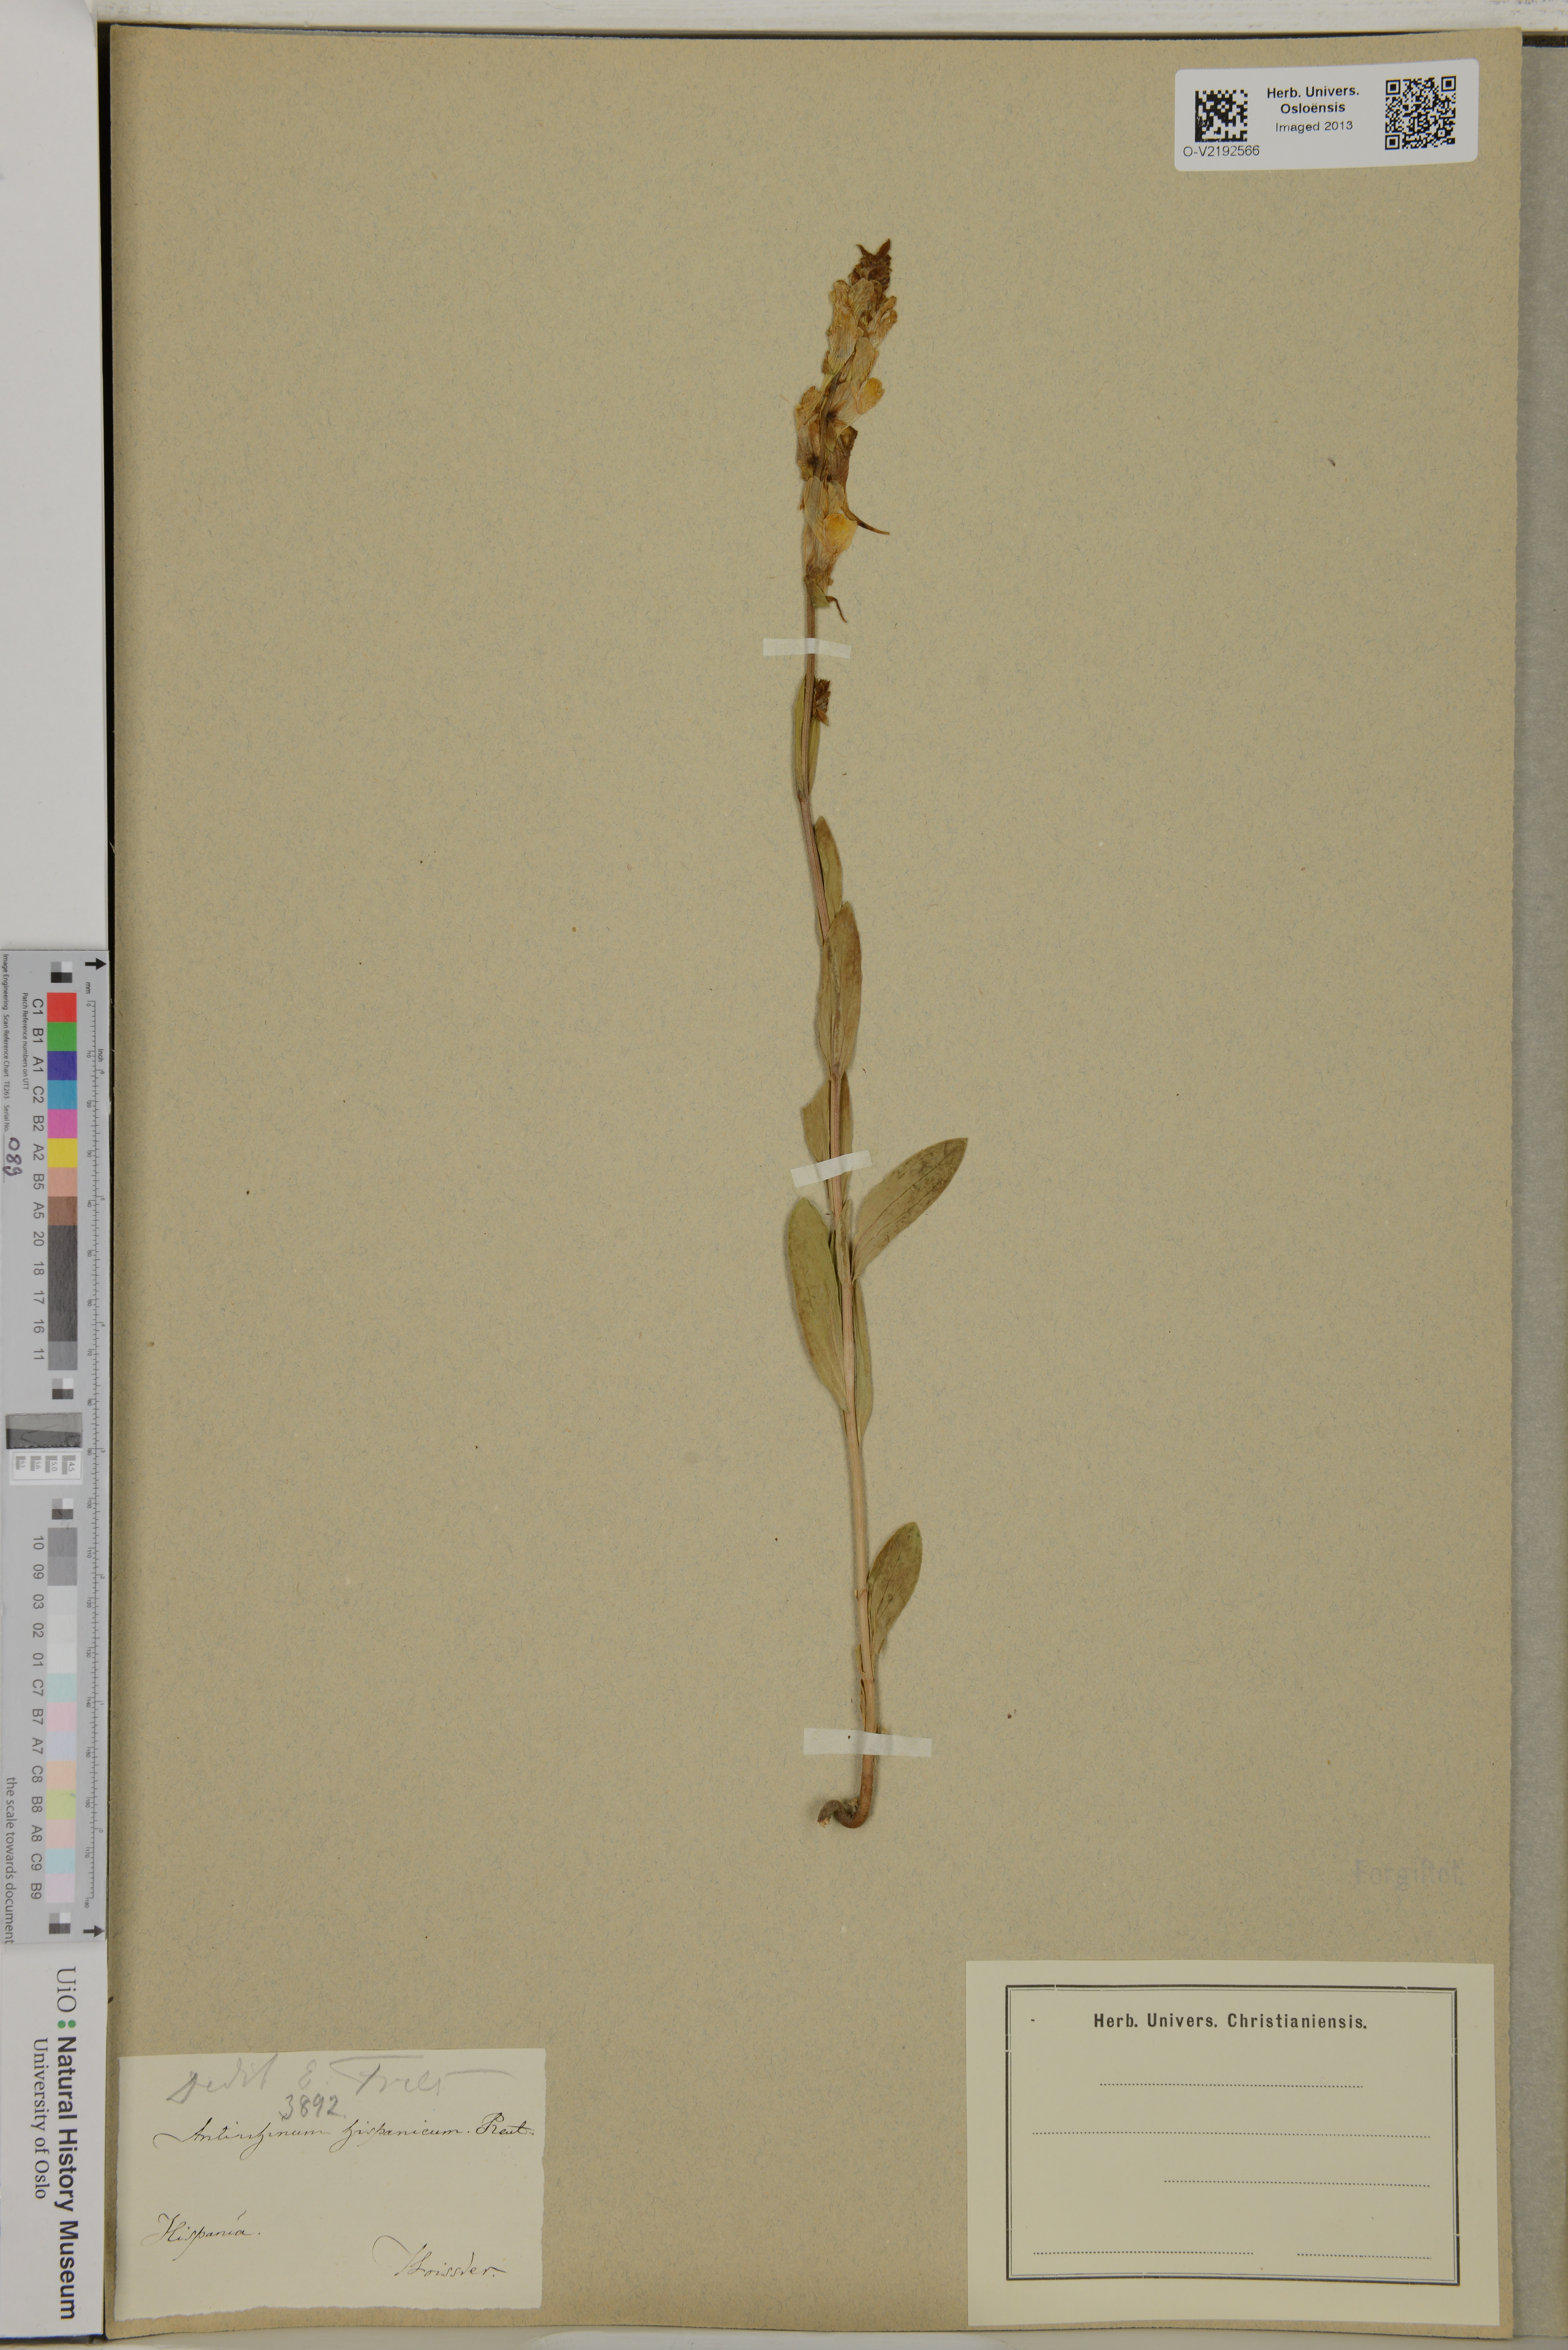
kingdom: Plantae
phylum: Tracheophyta
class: Magnoliopsida
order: Lamiales
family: Plantaginaceae
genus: Antirrhinum
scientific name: Antirrhinum hispanicum
